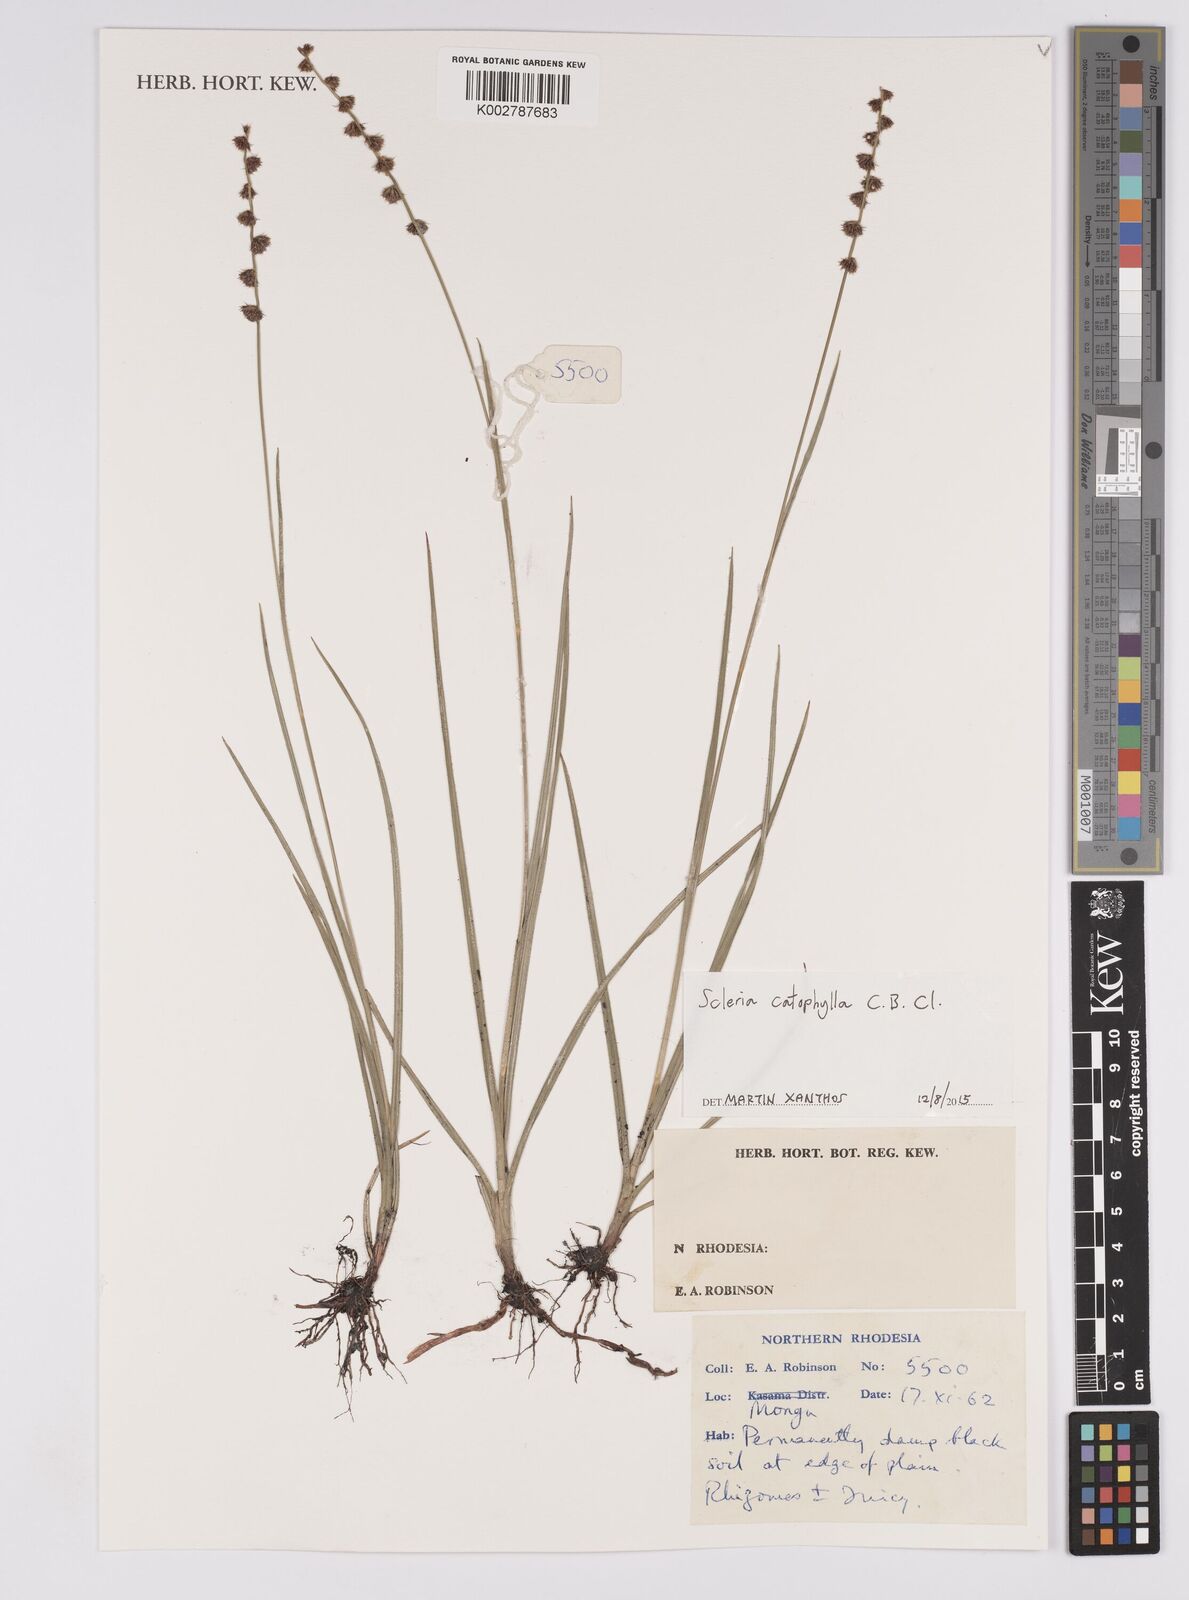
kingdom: Plantae
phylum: Tracheophyta
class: Liliopsida
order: Poales
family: Cyperaceae
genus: Scleria
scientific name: Scleria catophylla
